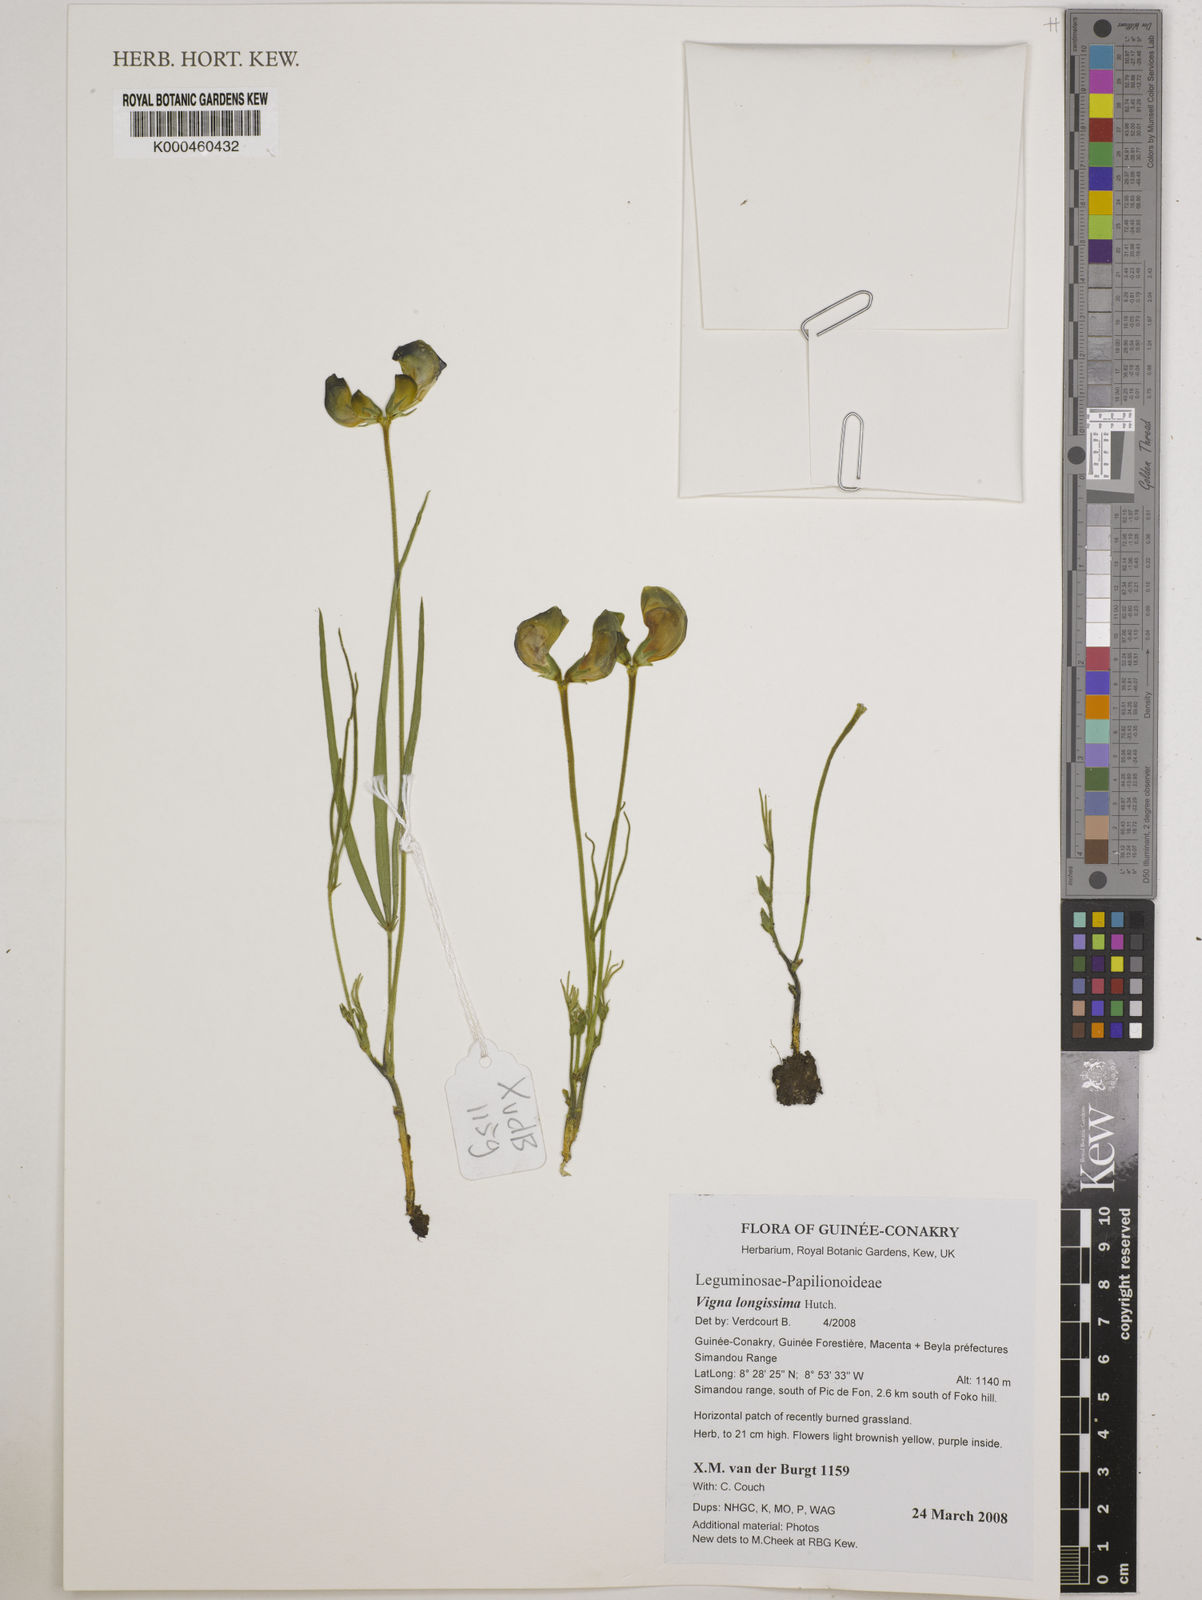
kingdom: Plantae
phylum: Tracheophyta
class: Magnoliopsida
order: Fabales
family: Fabaceae
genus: Vigna
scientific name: Vigna longissima
